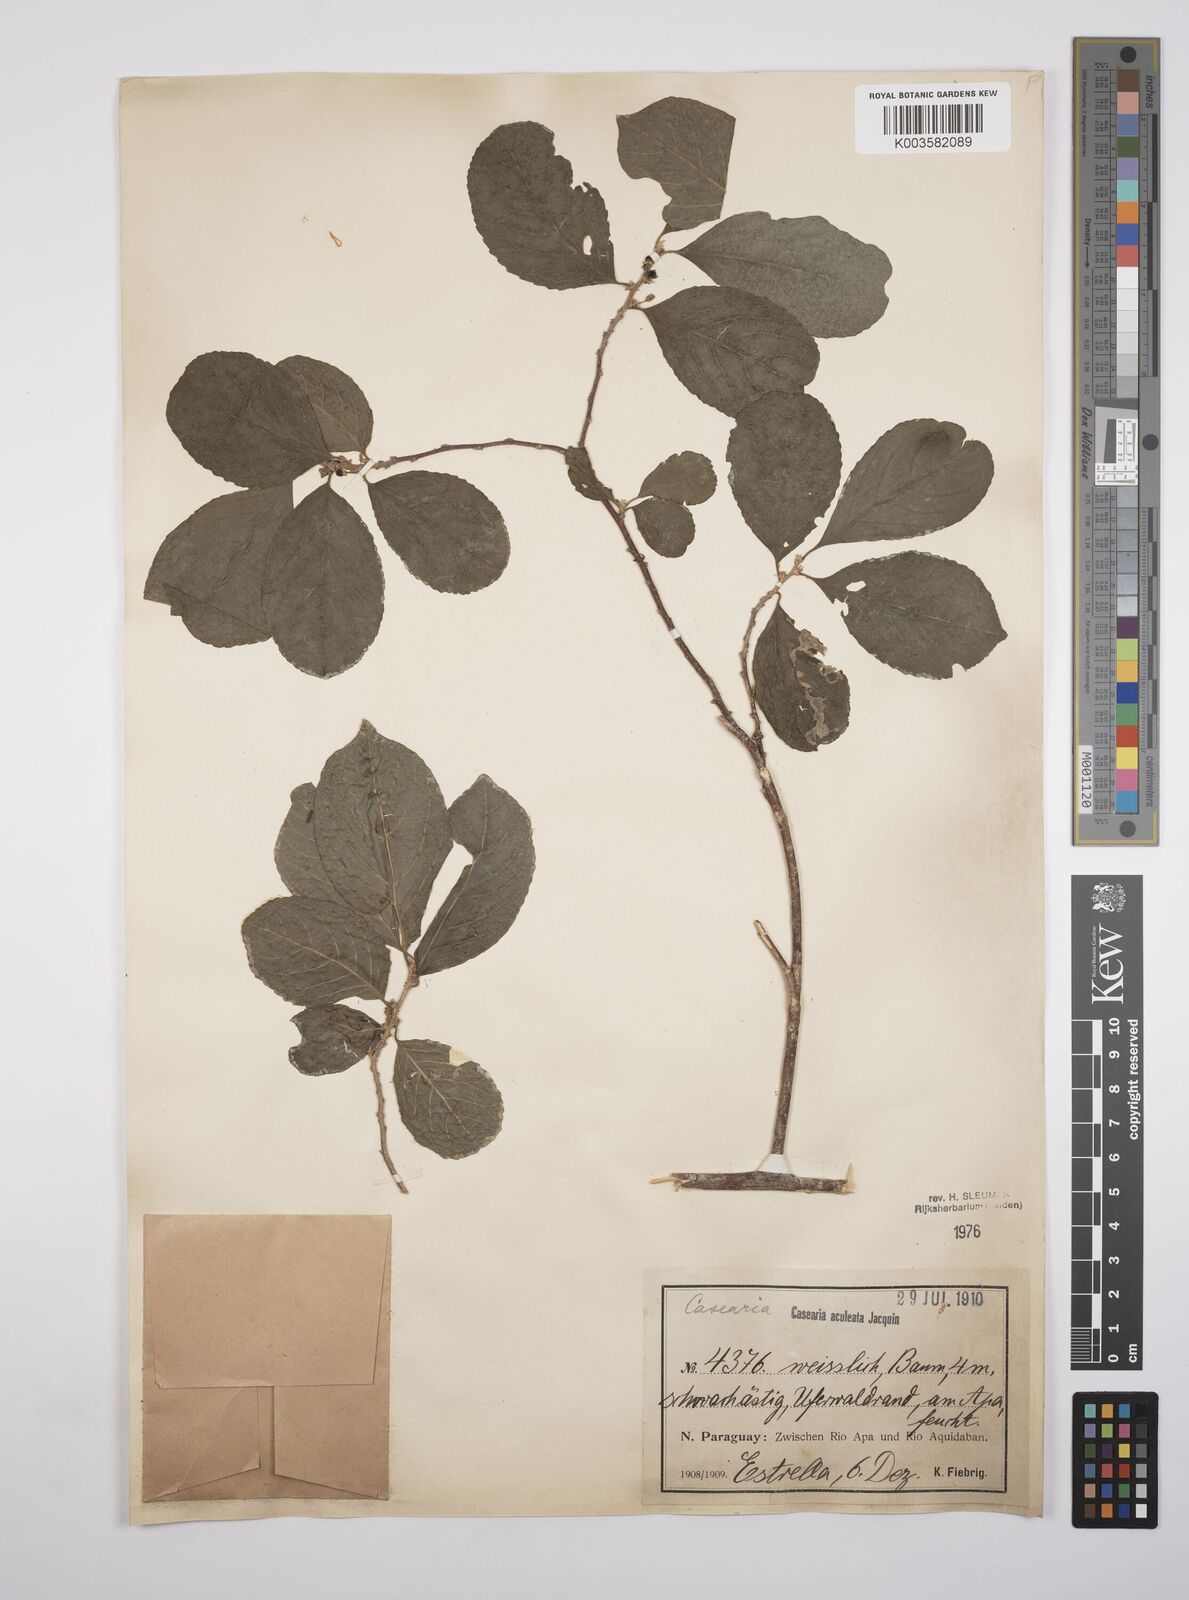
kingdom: Plantae
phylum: Tracheophyta
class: Magnoliopsida
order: Malpighiales
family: Salicaceae
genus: Casearia
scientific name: Casearia aculeata
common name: Cockspur
